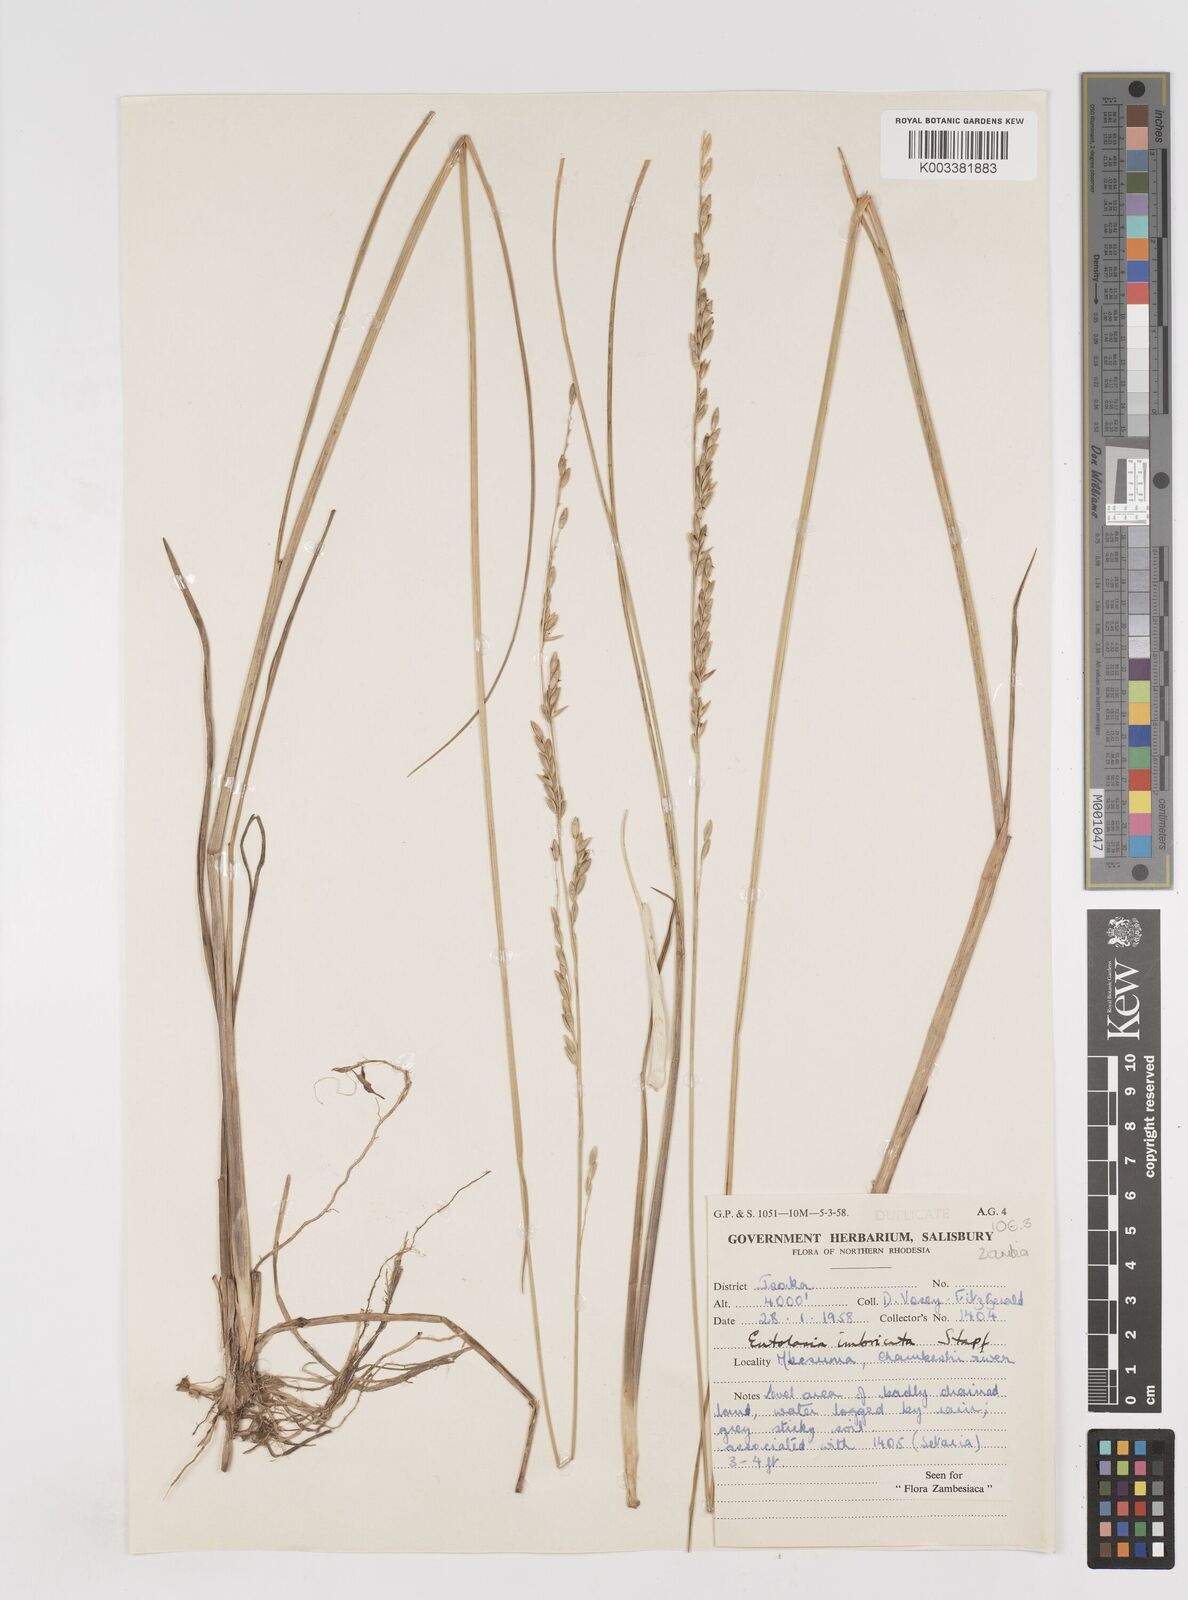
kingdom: Plantae
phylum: Tracheophyta
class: Liliopsida
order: Poales
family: Poaceae
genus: Entolasia
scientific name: Entolasia imbricata
